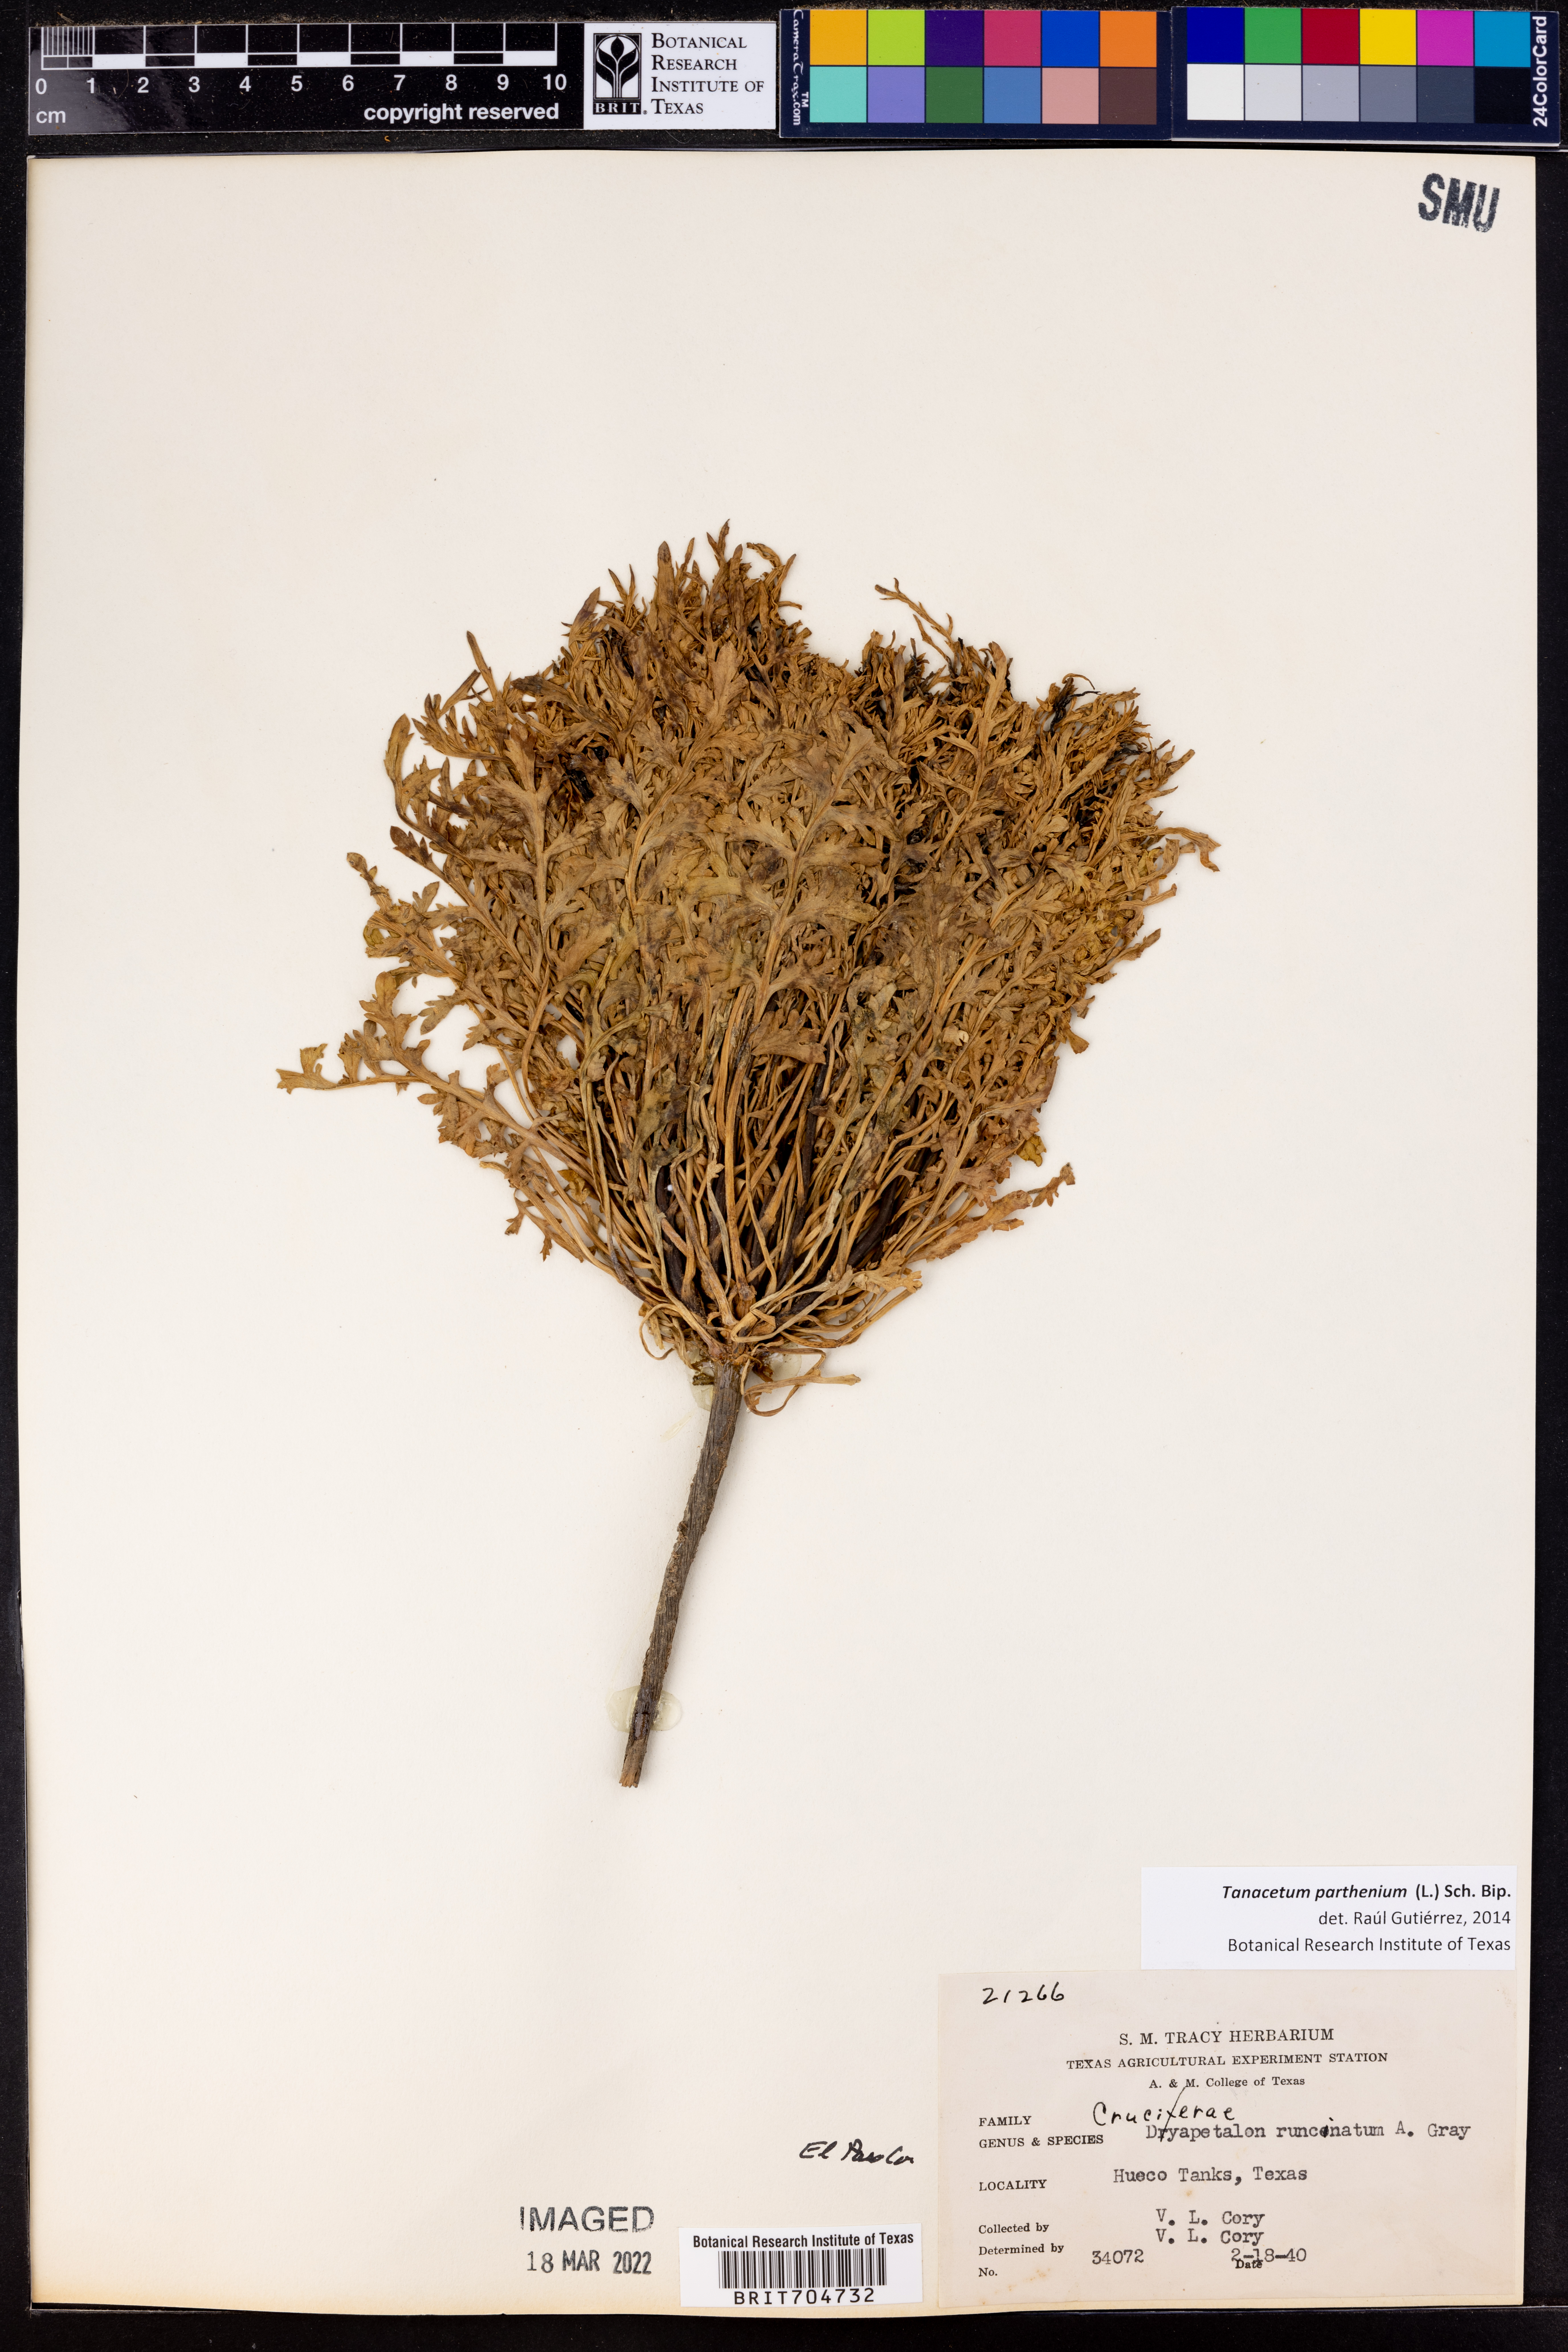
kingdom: Plantae
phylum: Tracheophyta
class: Magnoliopsida
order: Asterales
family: Asteraceae
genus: Tanacetum
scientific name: Tanacetum parthenium
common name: Feverfew
